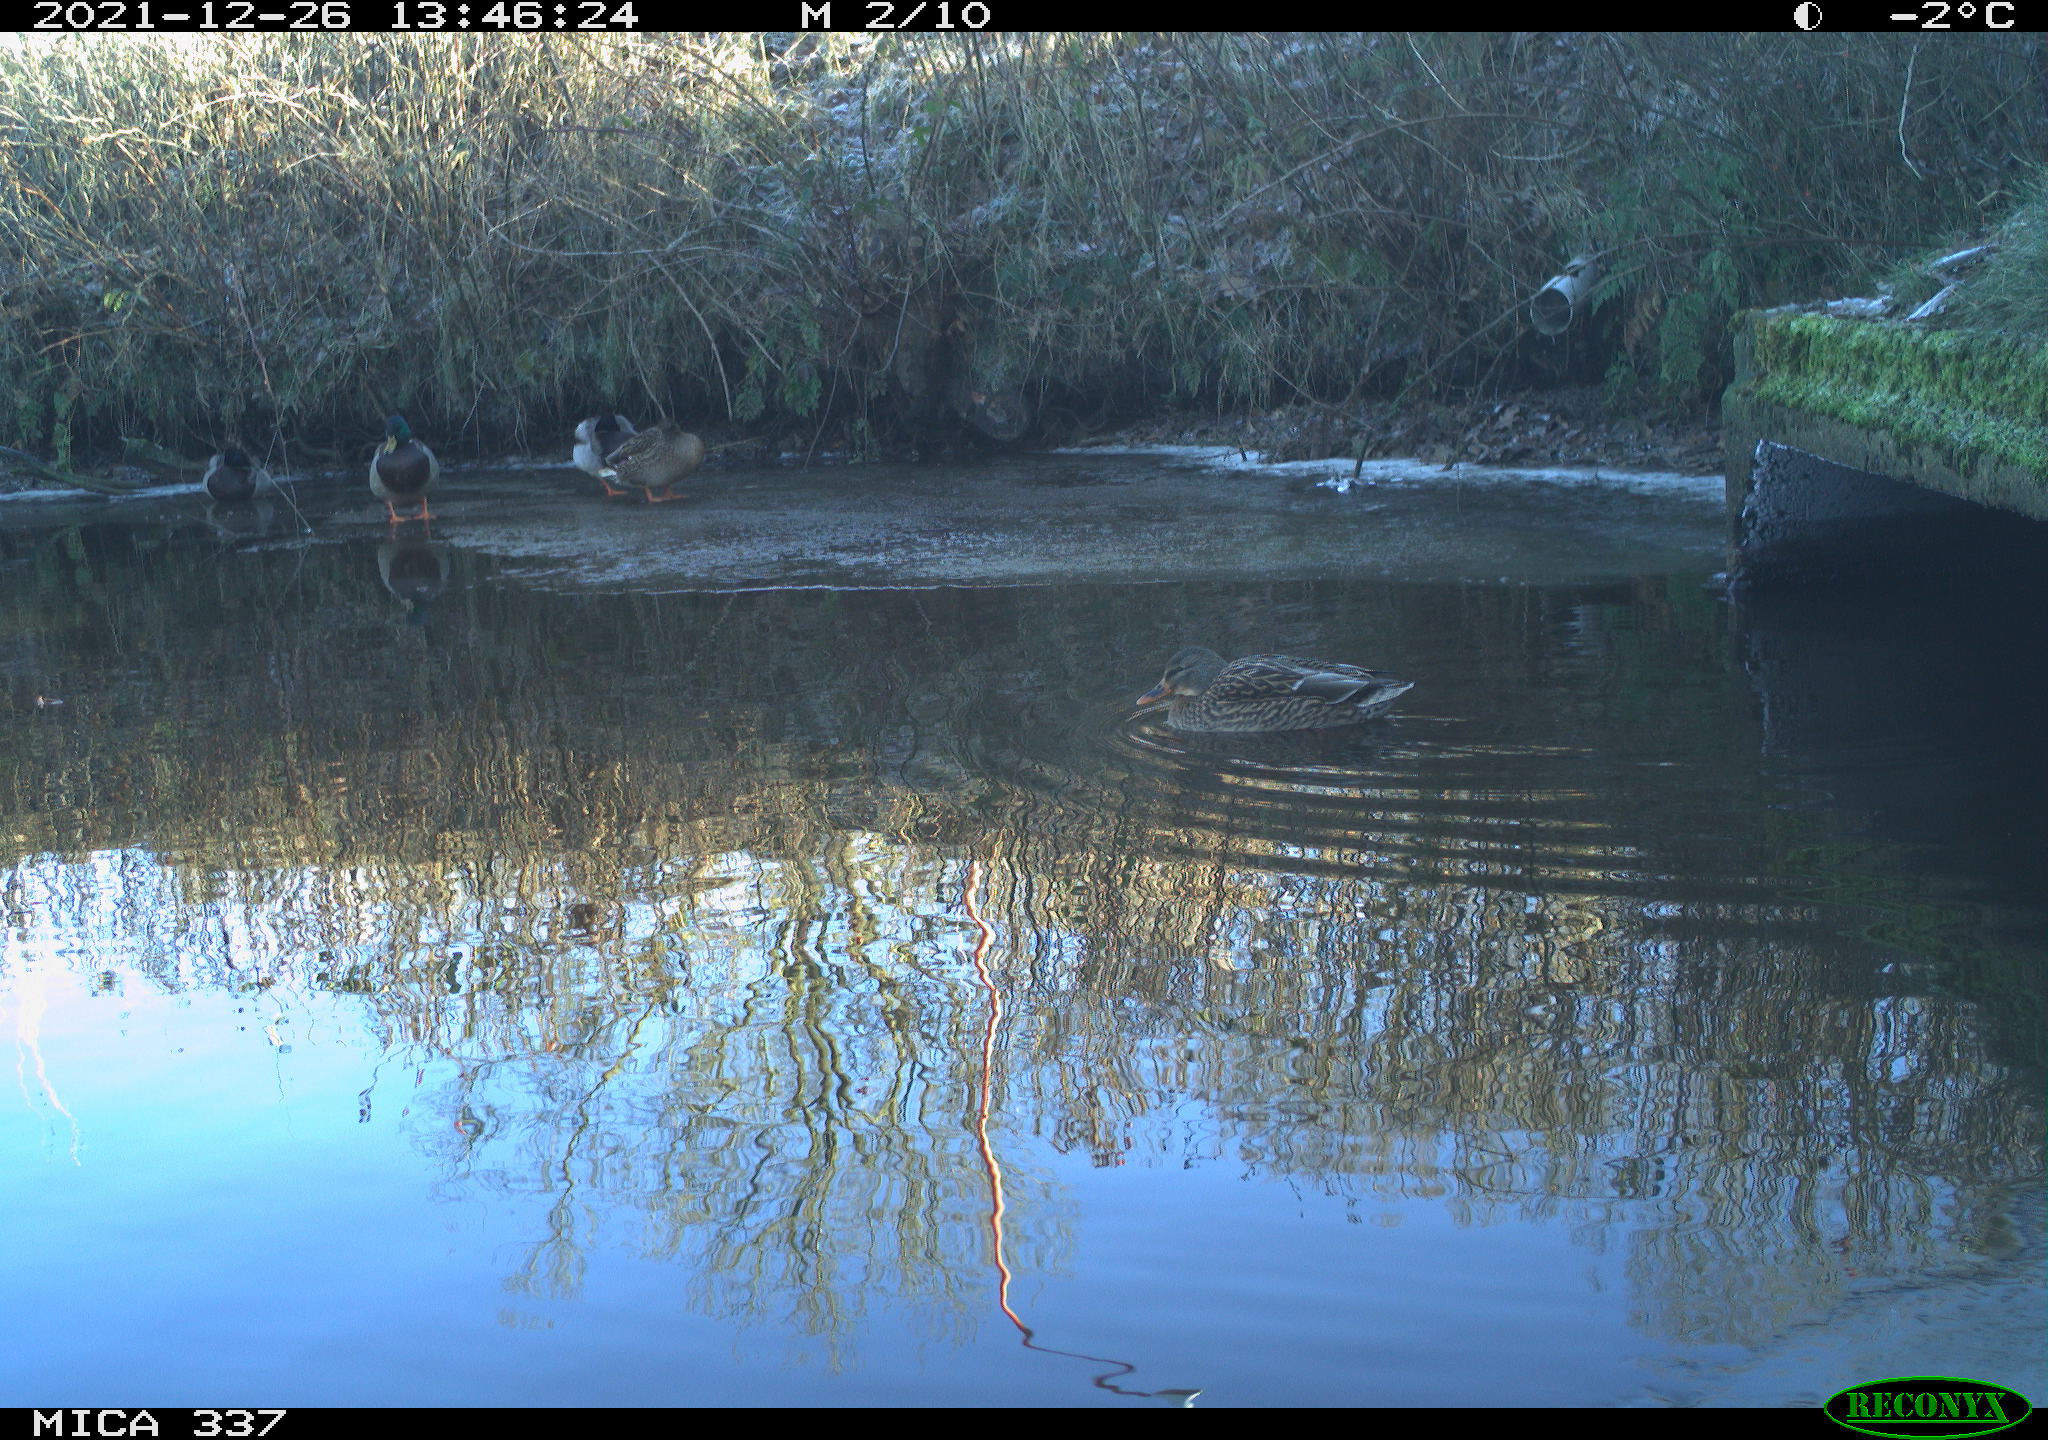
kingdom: Animalia
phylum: Chordata
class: Aves
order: Anseriformes
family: Anatidae
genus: Anas
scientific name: Anas platyrhynchos
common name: Mallard
